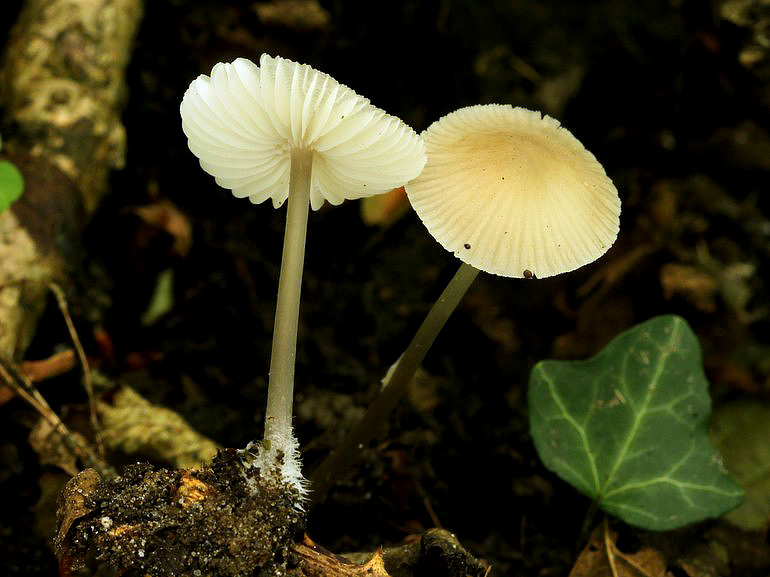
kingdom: Fungi
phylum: Basidiomycota
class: Agaricomycetes
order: Agaricales
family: Mycenaceae
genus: Mycena
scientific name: Mycena abramsii
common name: sommer-huesvamp
